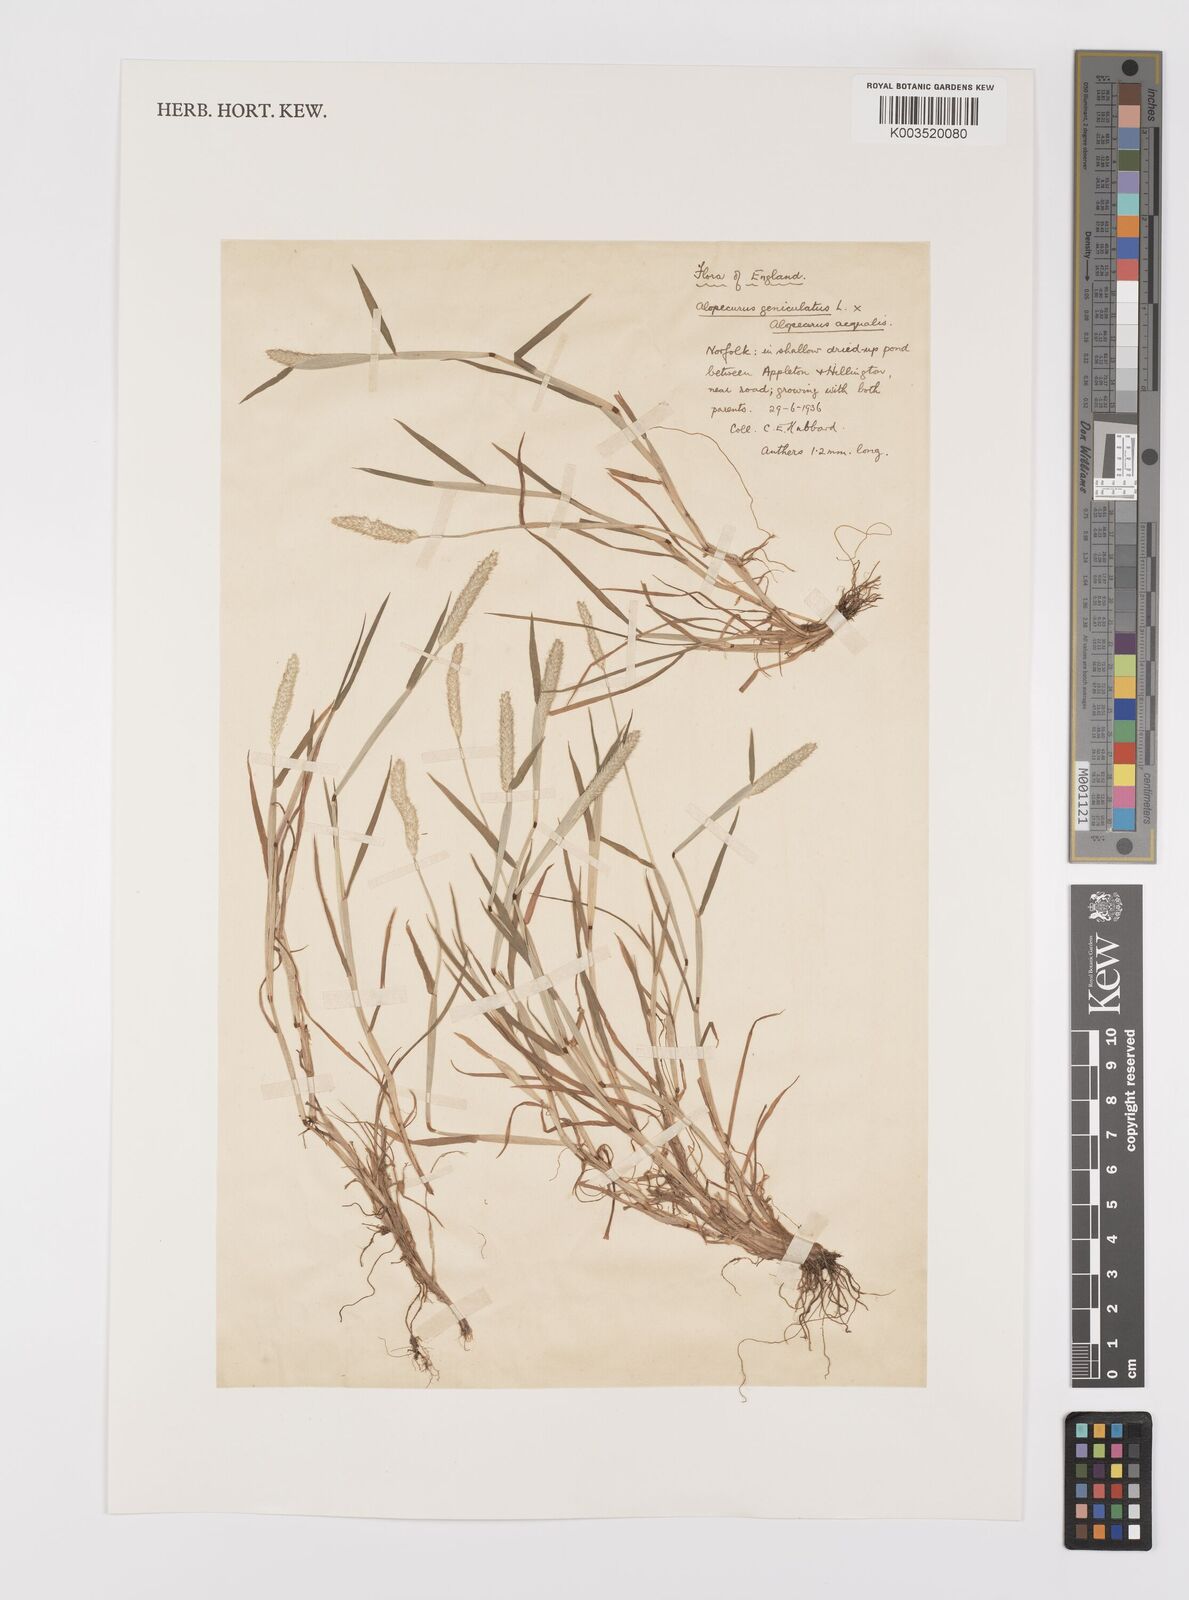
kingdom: Plantae
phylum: Tracheophyta
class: Liliopsida
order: Poales
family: Poaceae
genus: Alopecurus
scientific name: Alopecurus haussknechtianus
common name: Haussknecht's foxtail
